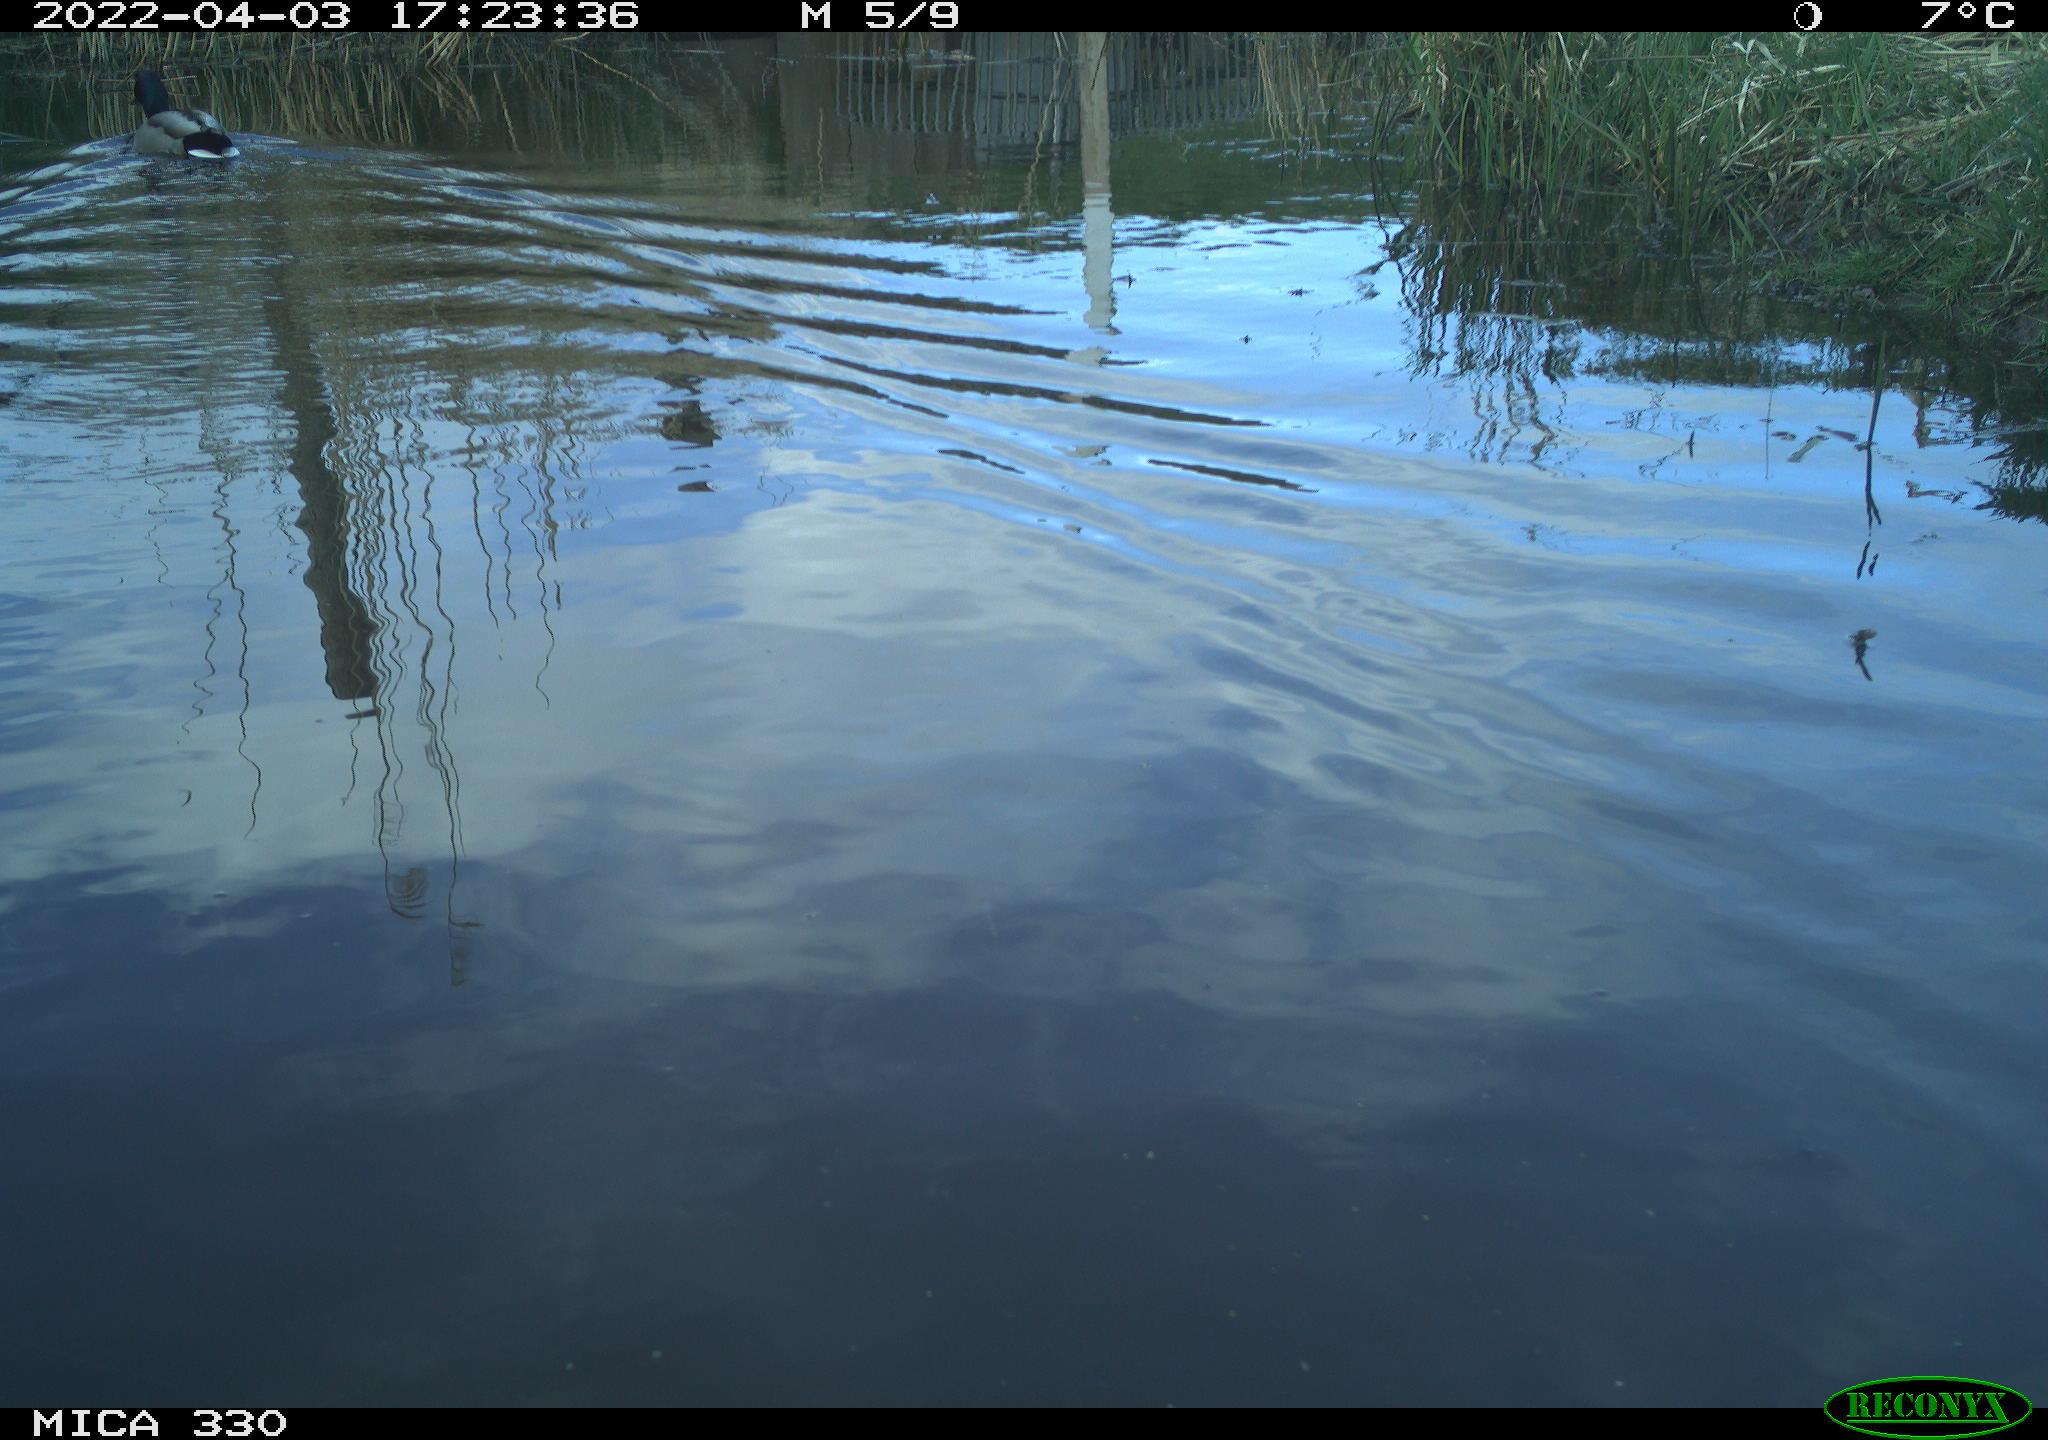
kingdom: Animalia
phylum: Chordata
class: Aves
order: Anseriformes
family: Anatidae
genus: Anas
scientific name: Anas platyrhynchos
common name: Mallard
